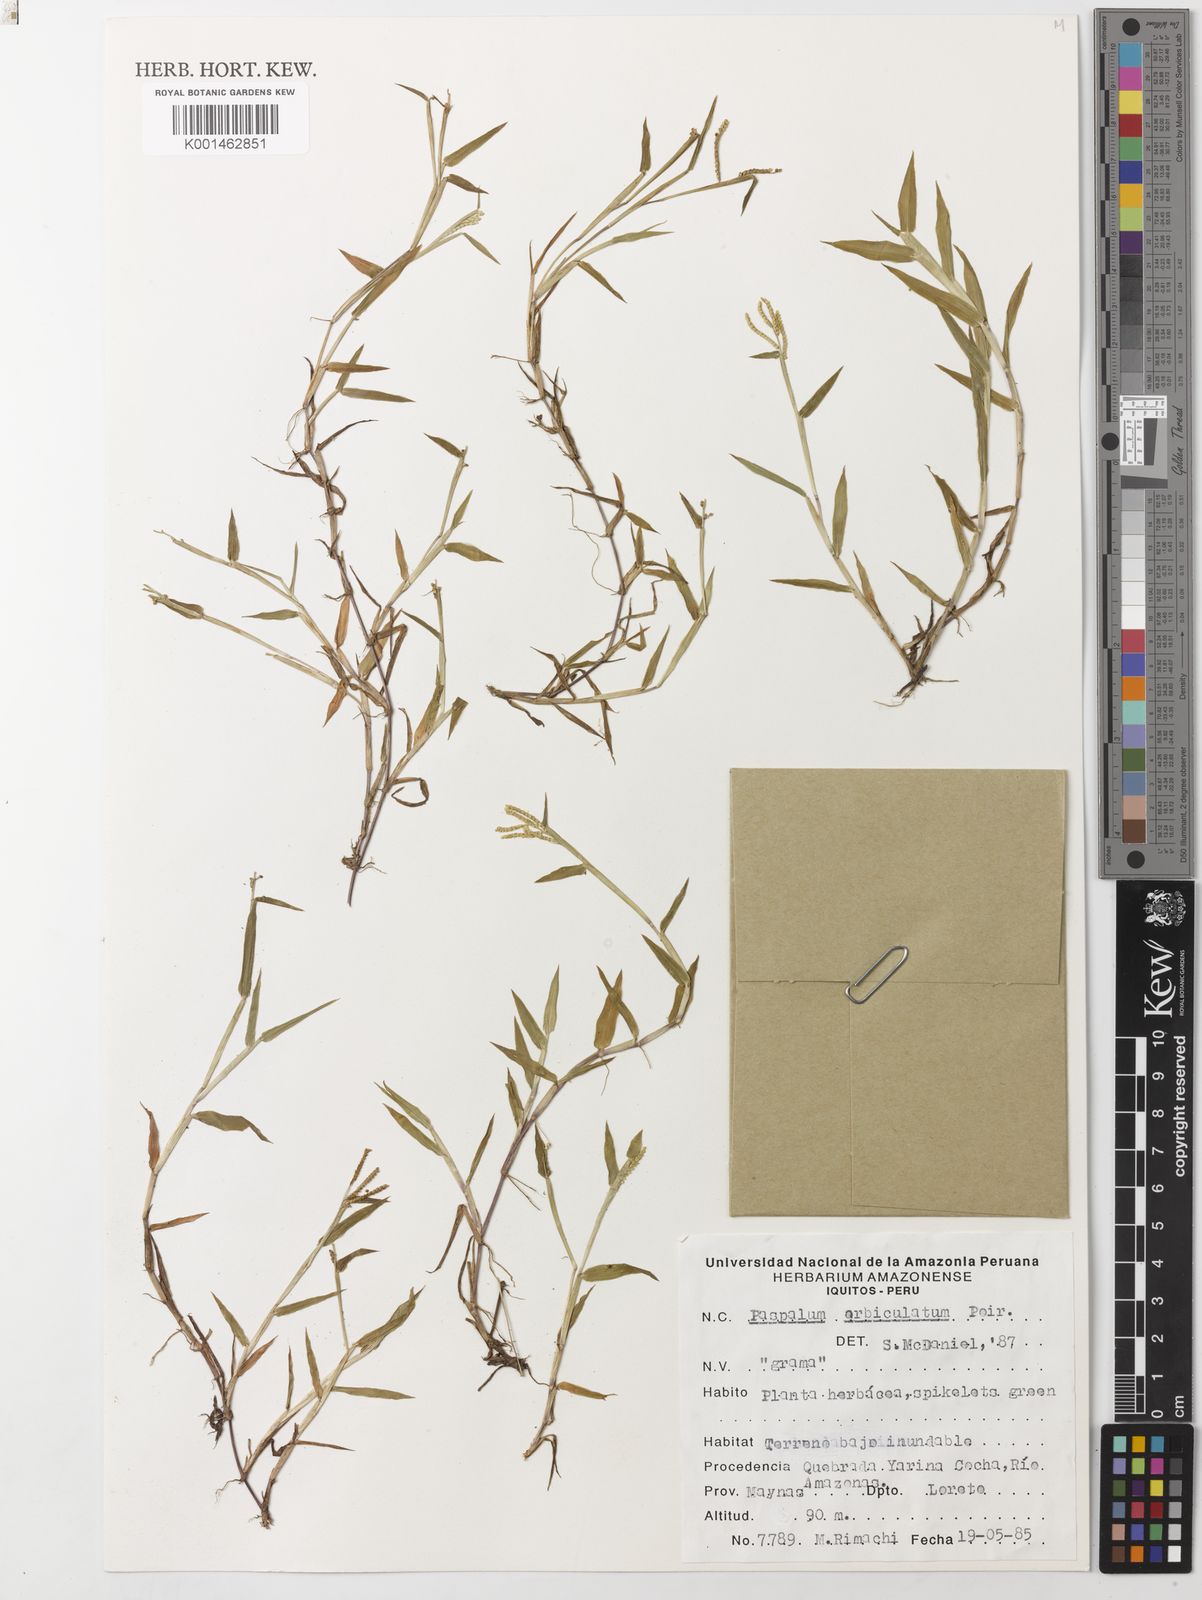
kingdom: Plantae
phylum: Tracheophyta
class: Liliopsida
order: Poales
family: Poaceae
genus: Paspalum
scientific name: Paspalum orbiculatum
